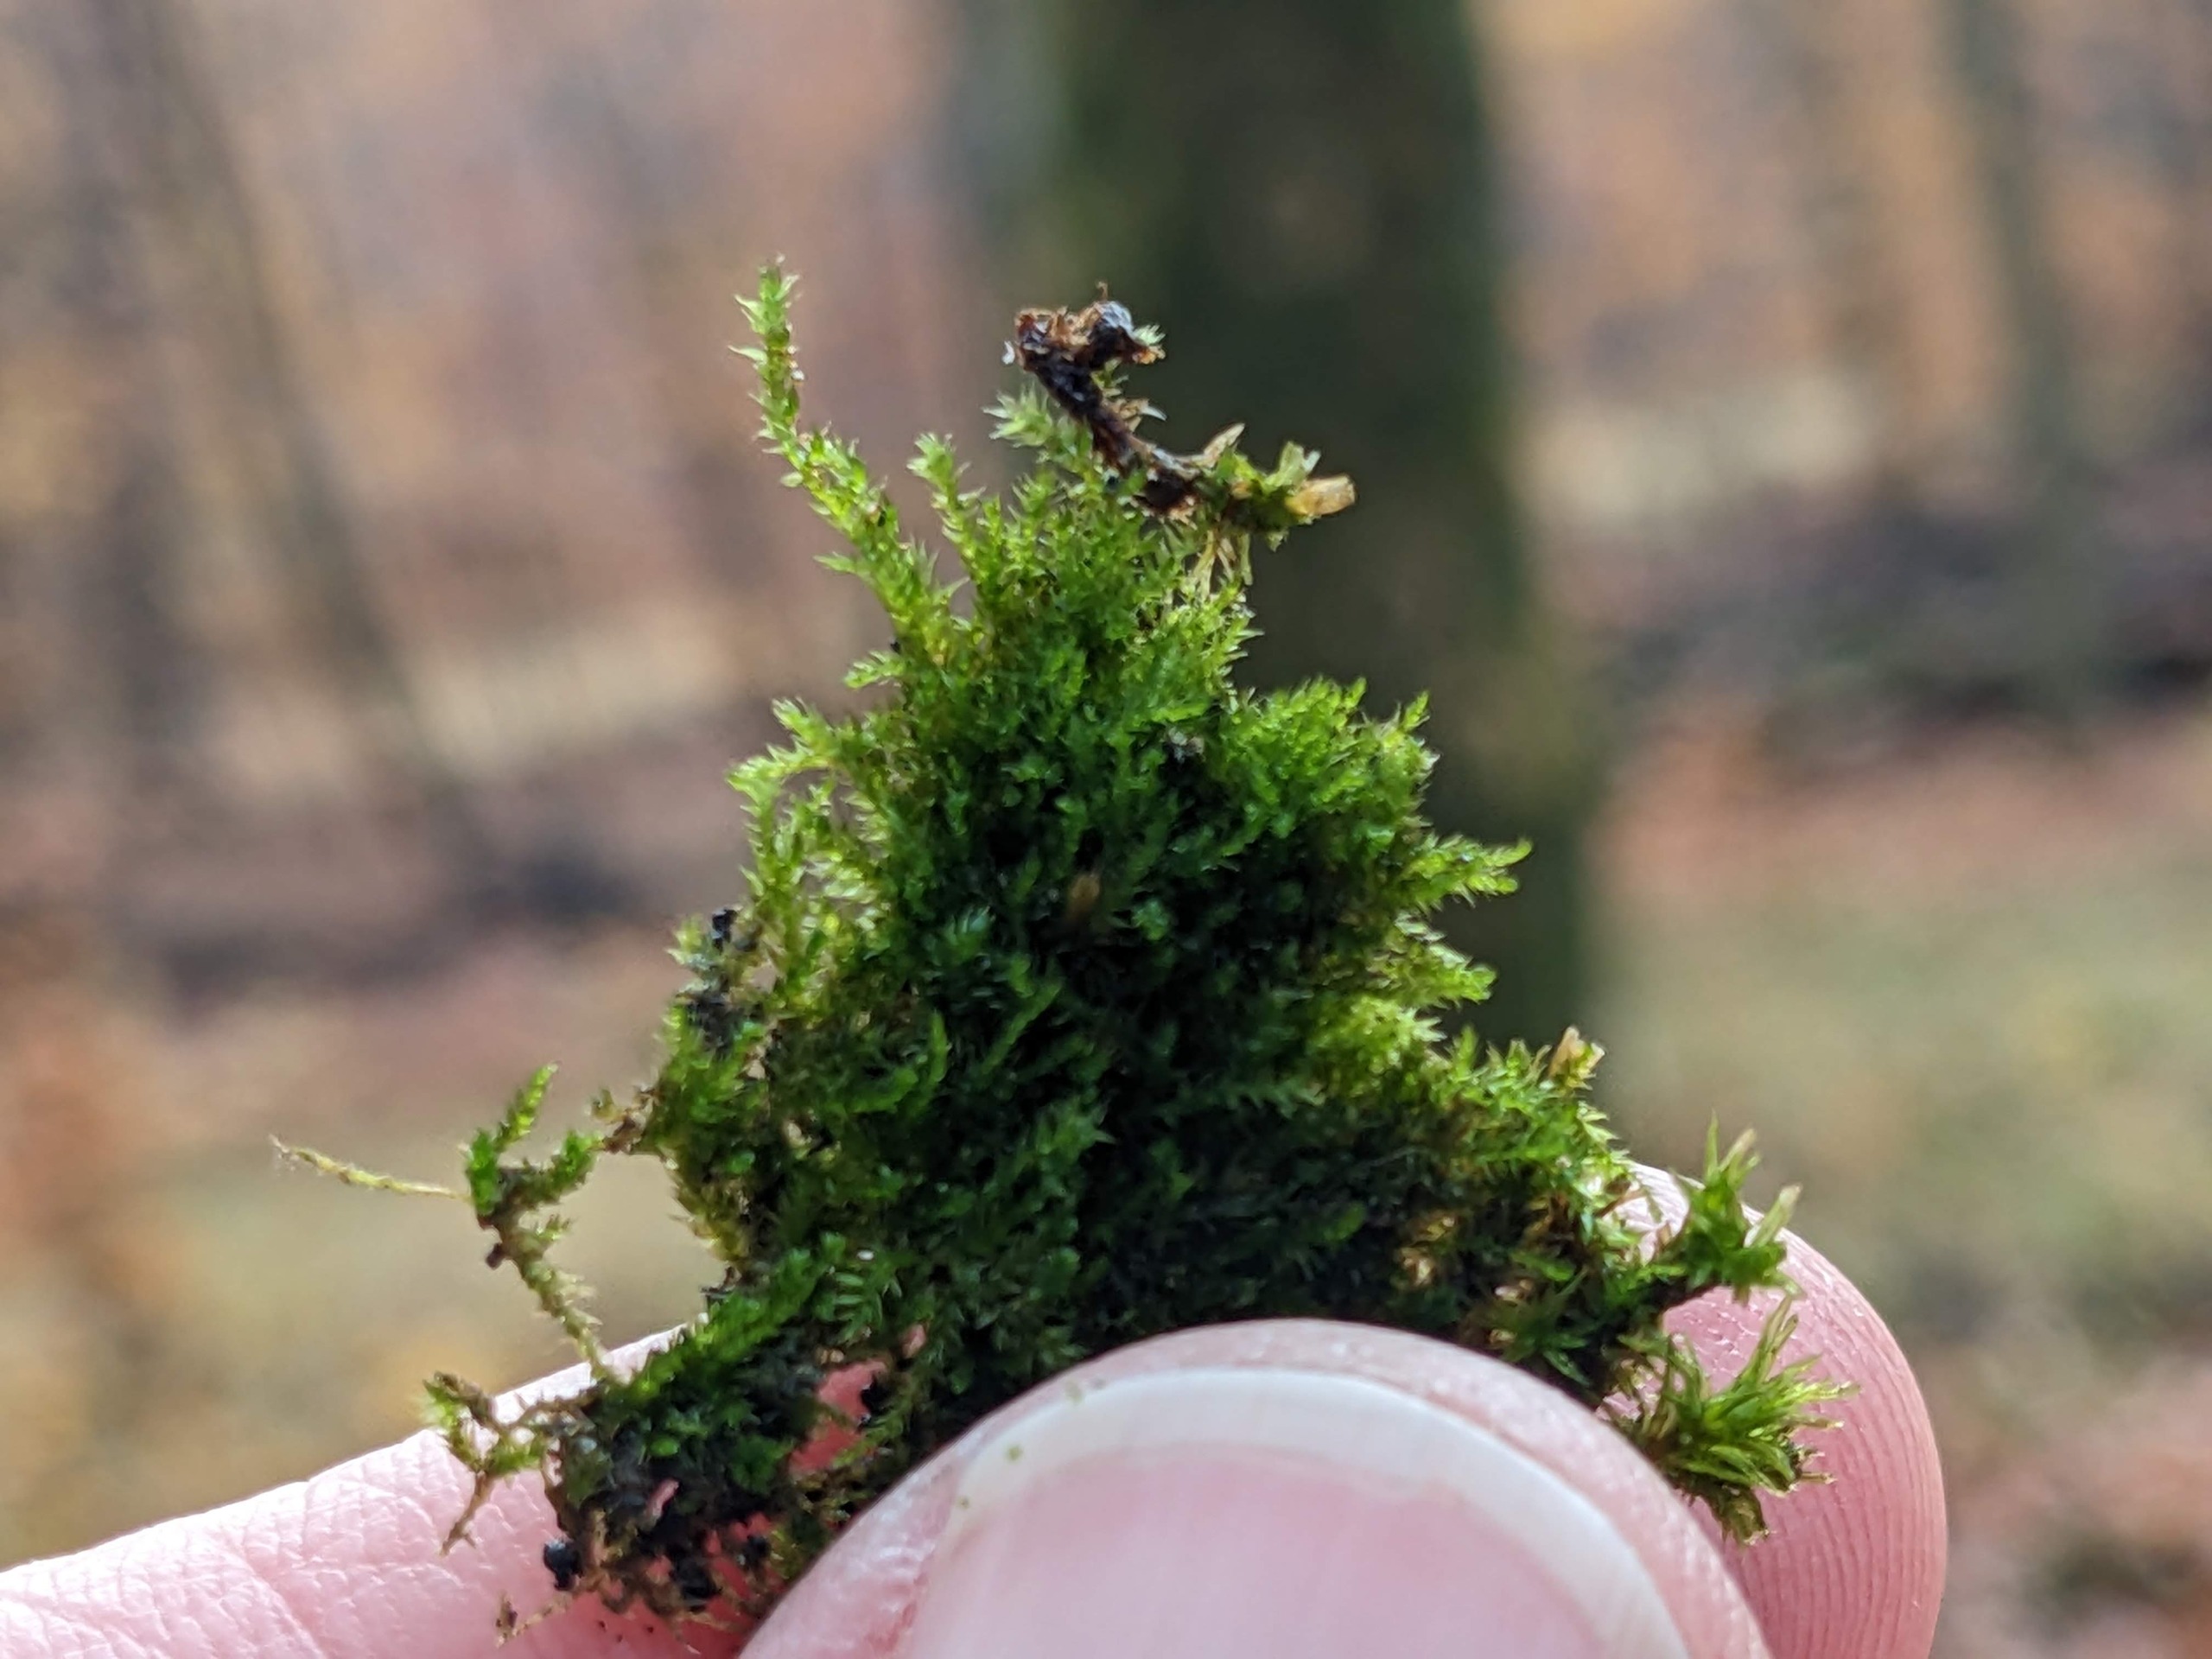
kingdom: Plantae
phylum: Bryophyta
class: Bryopsida
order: Hypnales
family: Pylaisiadelphaceae
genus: Platygyrium
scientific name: Platygyrium repens
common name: Mørk yngleknop
